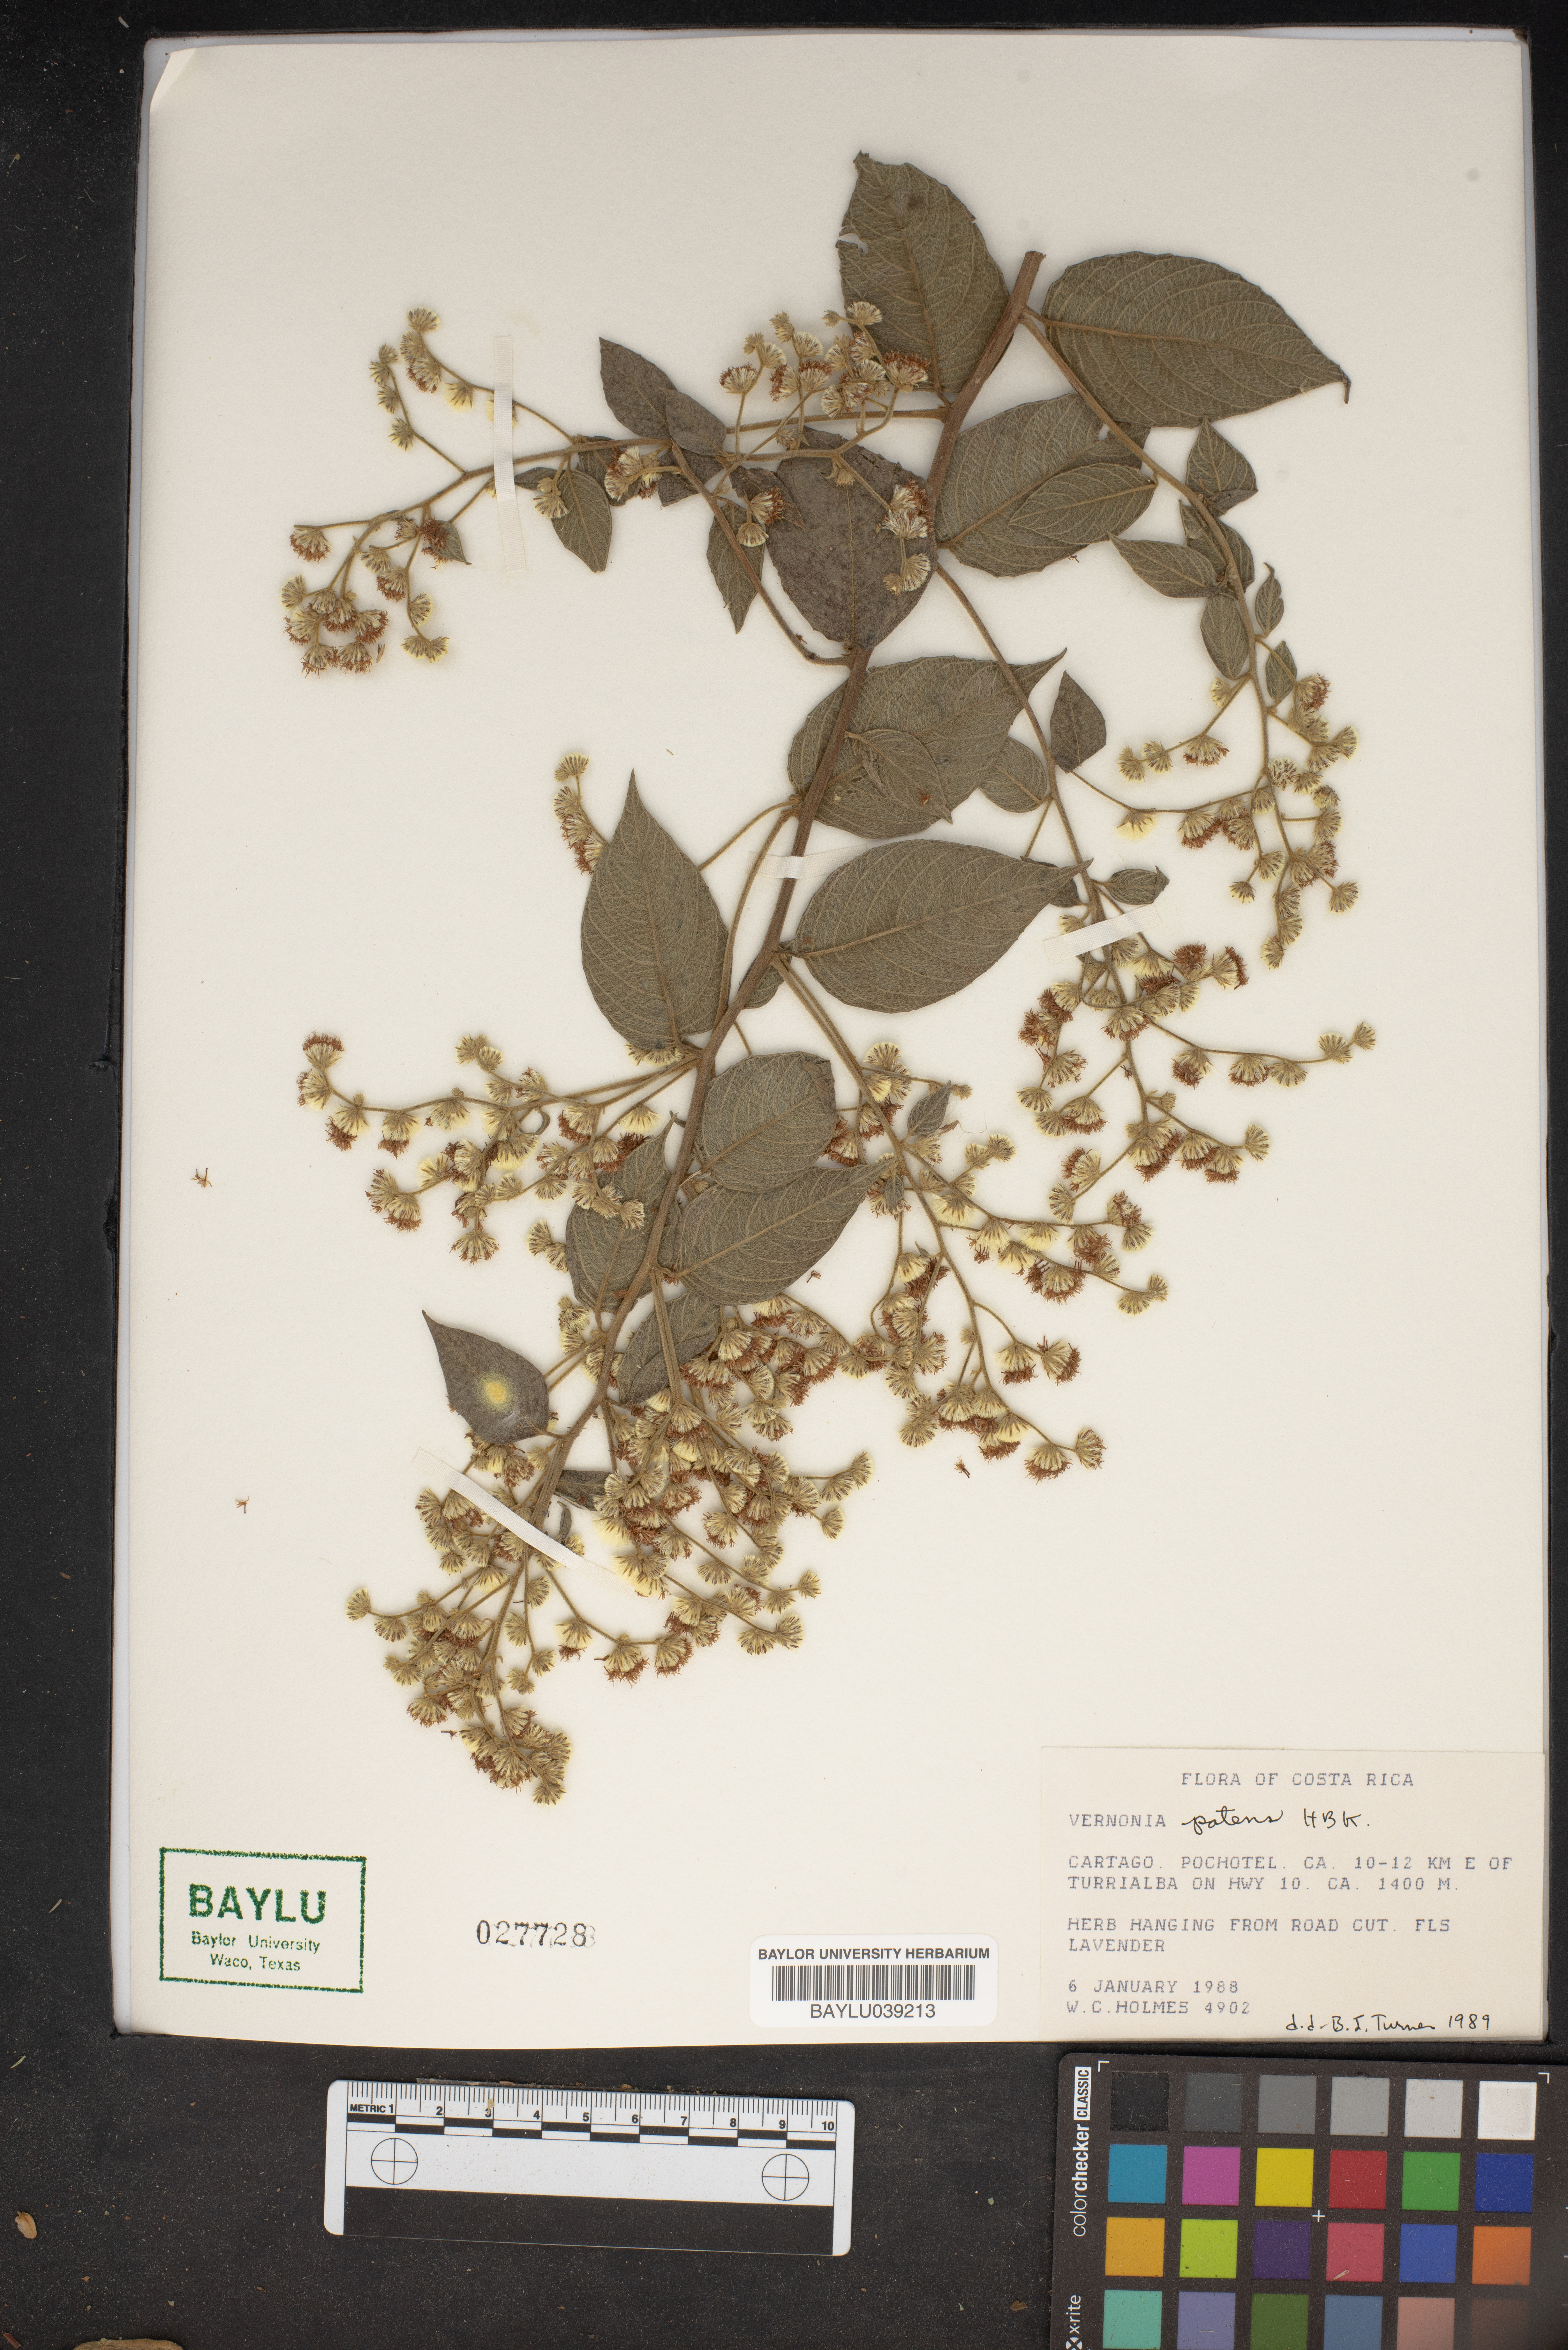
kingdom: Plantae
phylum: Tracheophyta
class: Magnoliopsida
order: Asterales
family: Asteraceae
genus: Vernonanthura
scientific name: Vernonanthura patens
